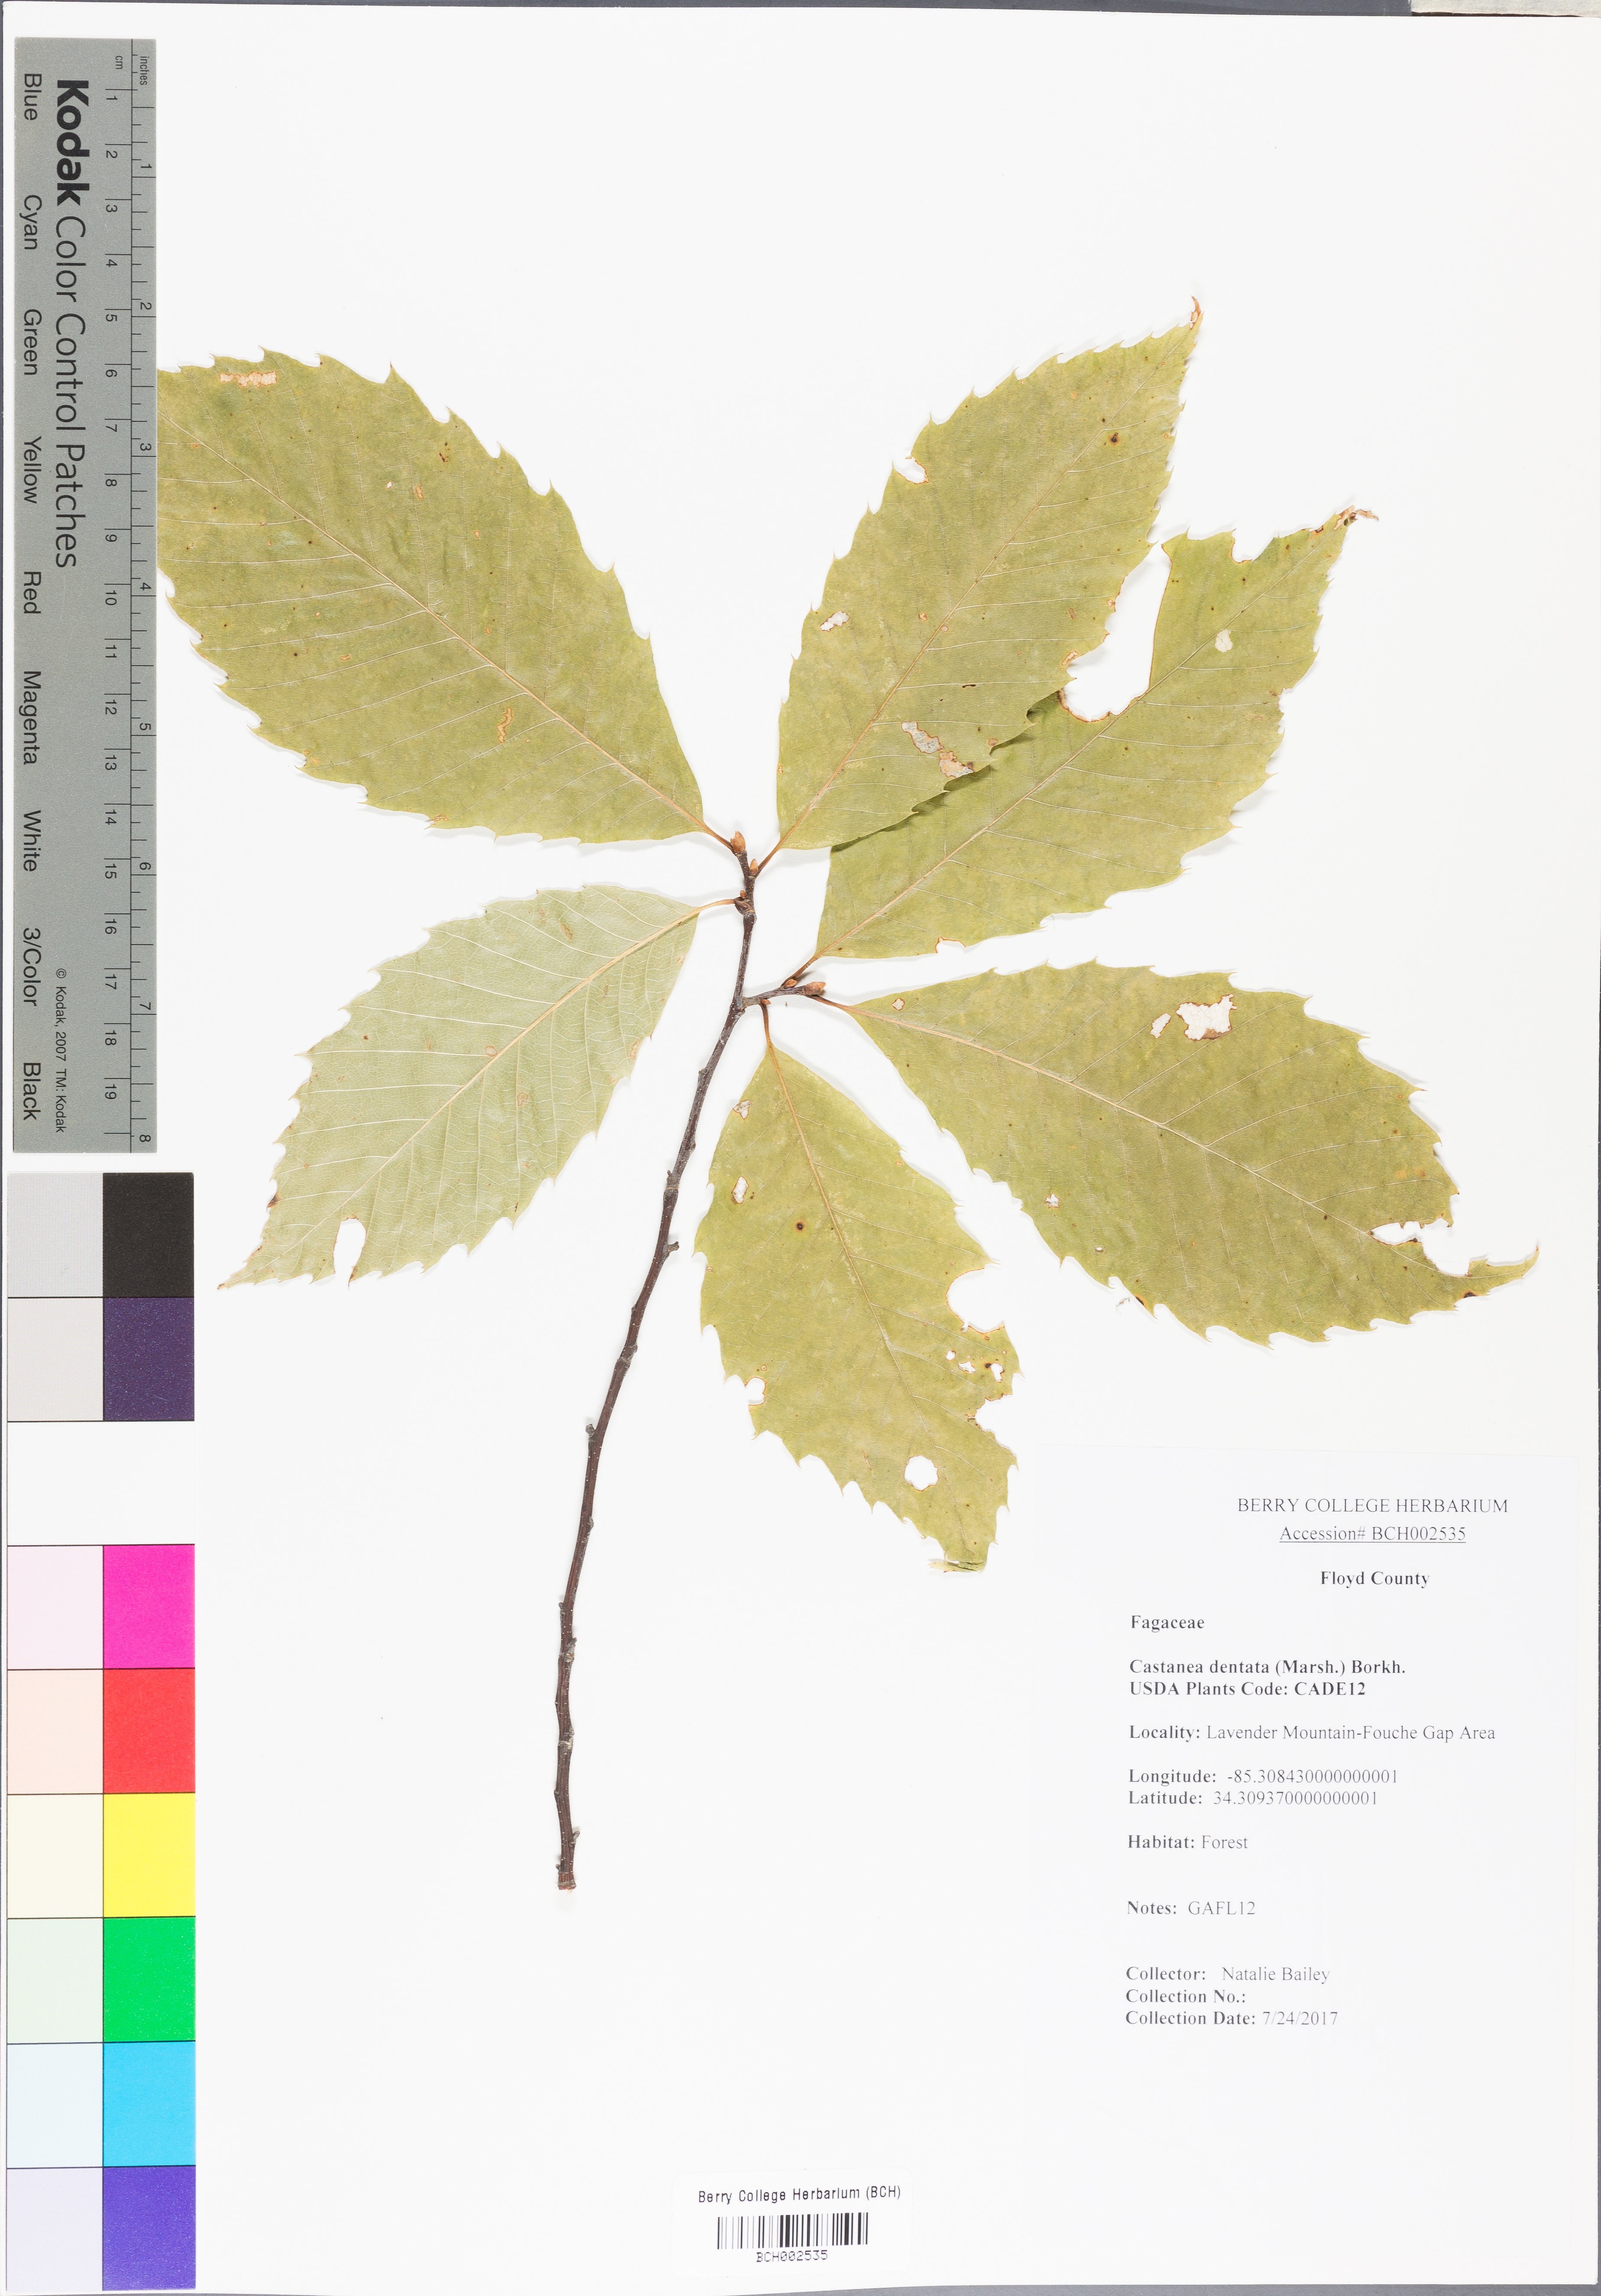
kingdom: Plantae
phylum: Tracheophyta
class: Magnoliopsida
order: Fagales
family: Fagaceae
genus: Castanea
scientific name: Castanea dentata
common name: American chestnut
